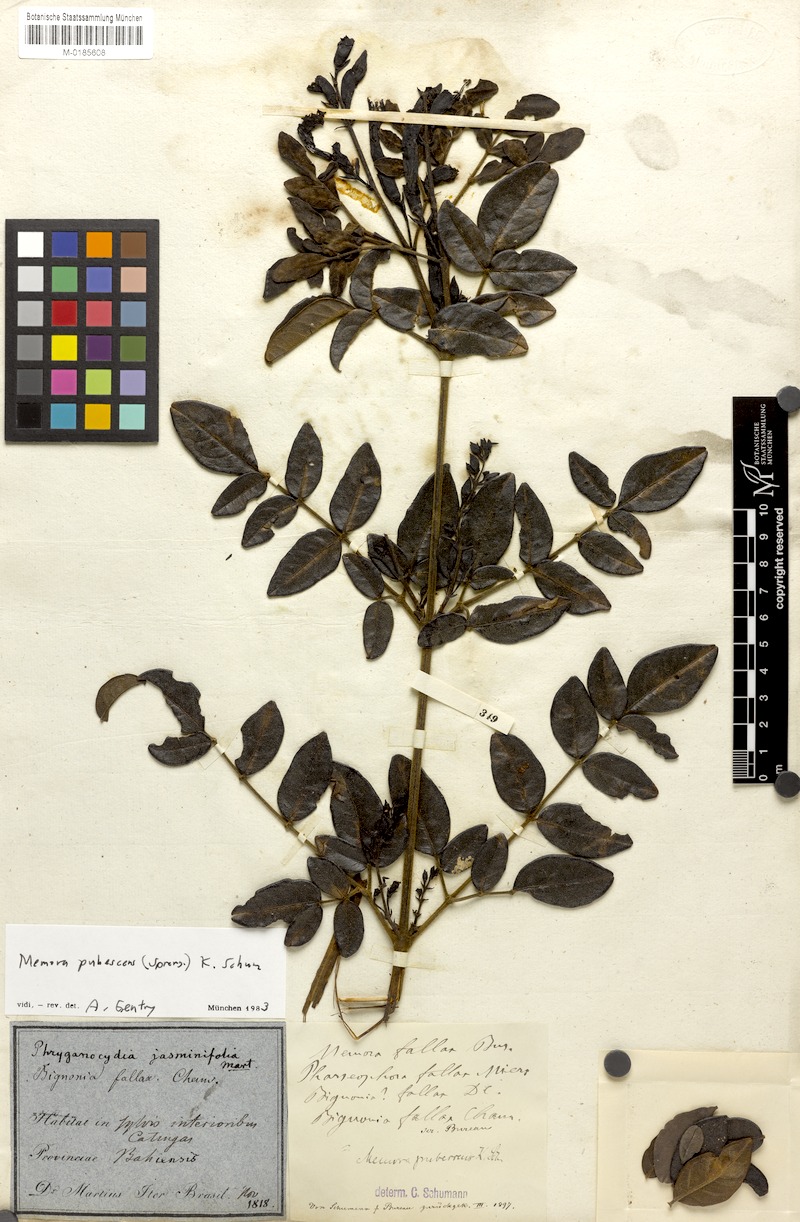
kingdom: Plantae
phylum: Tracheophyta
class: Magnoliopsida
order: Lamiales
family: Bignoniaceae
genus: Adenocalymma
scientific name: Adenocalymma pubescens
